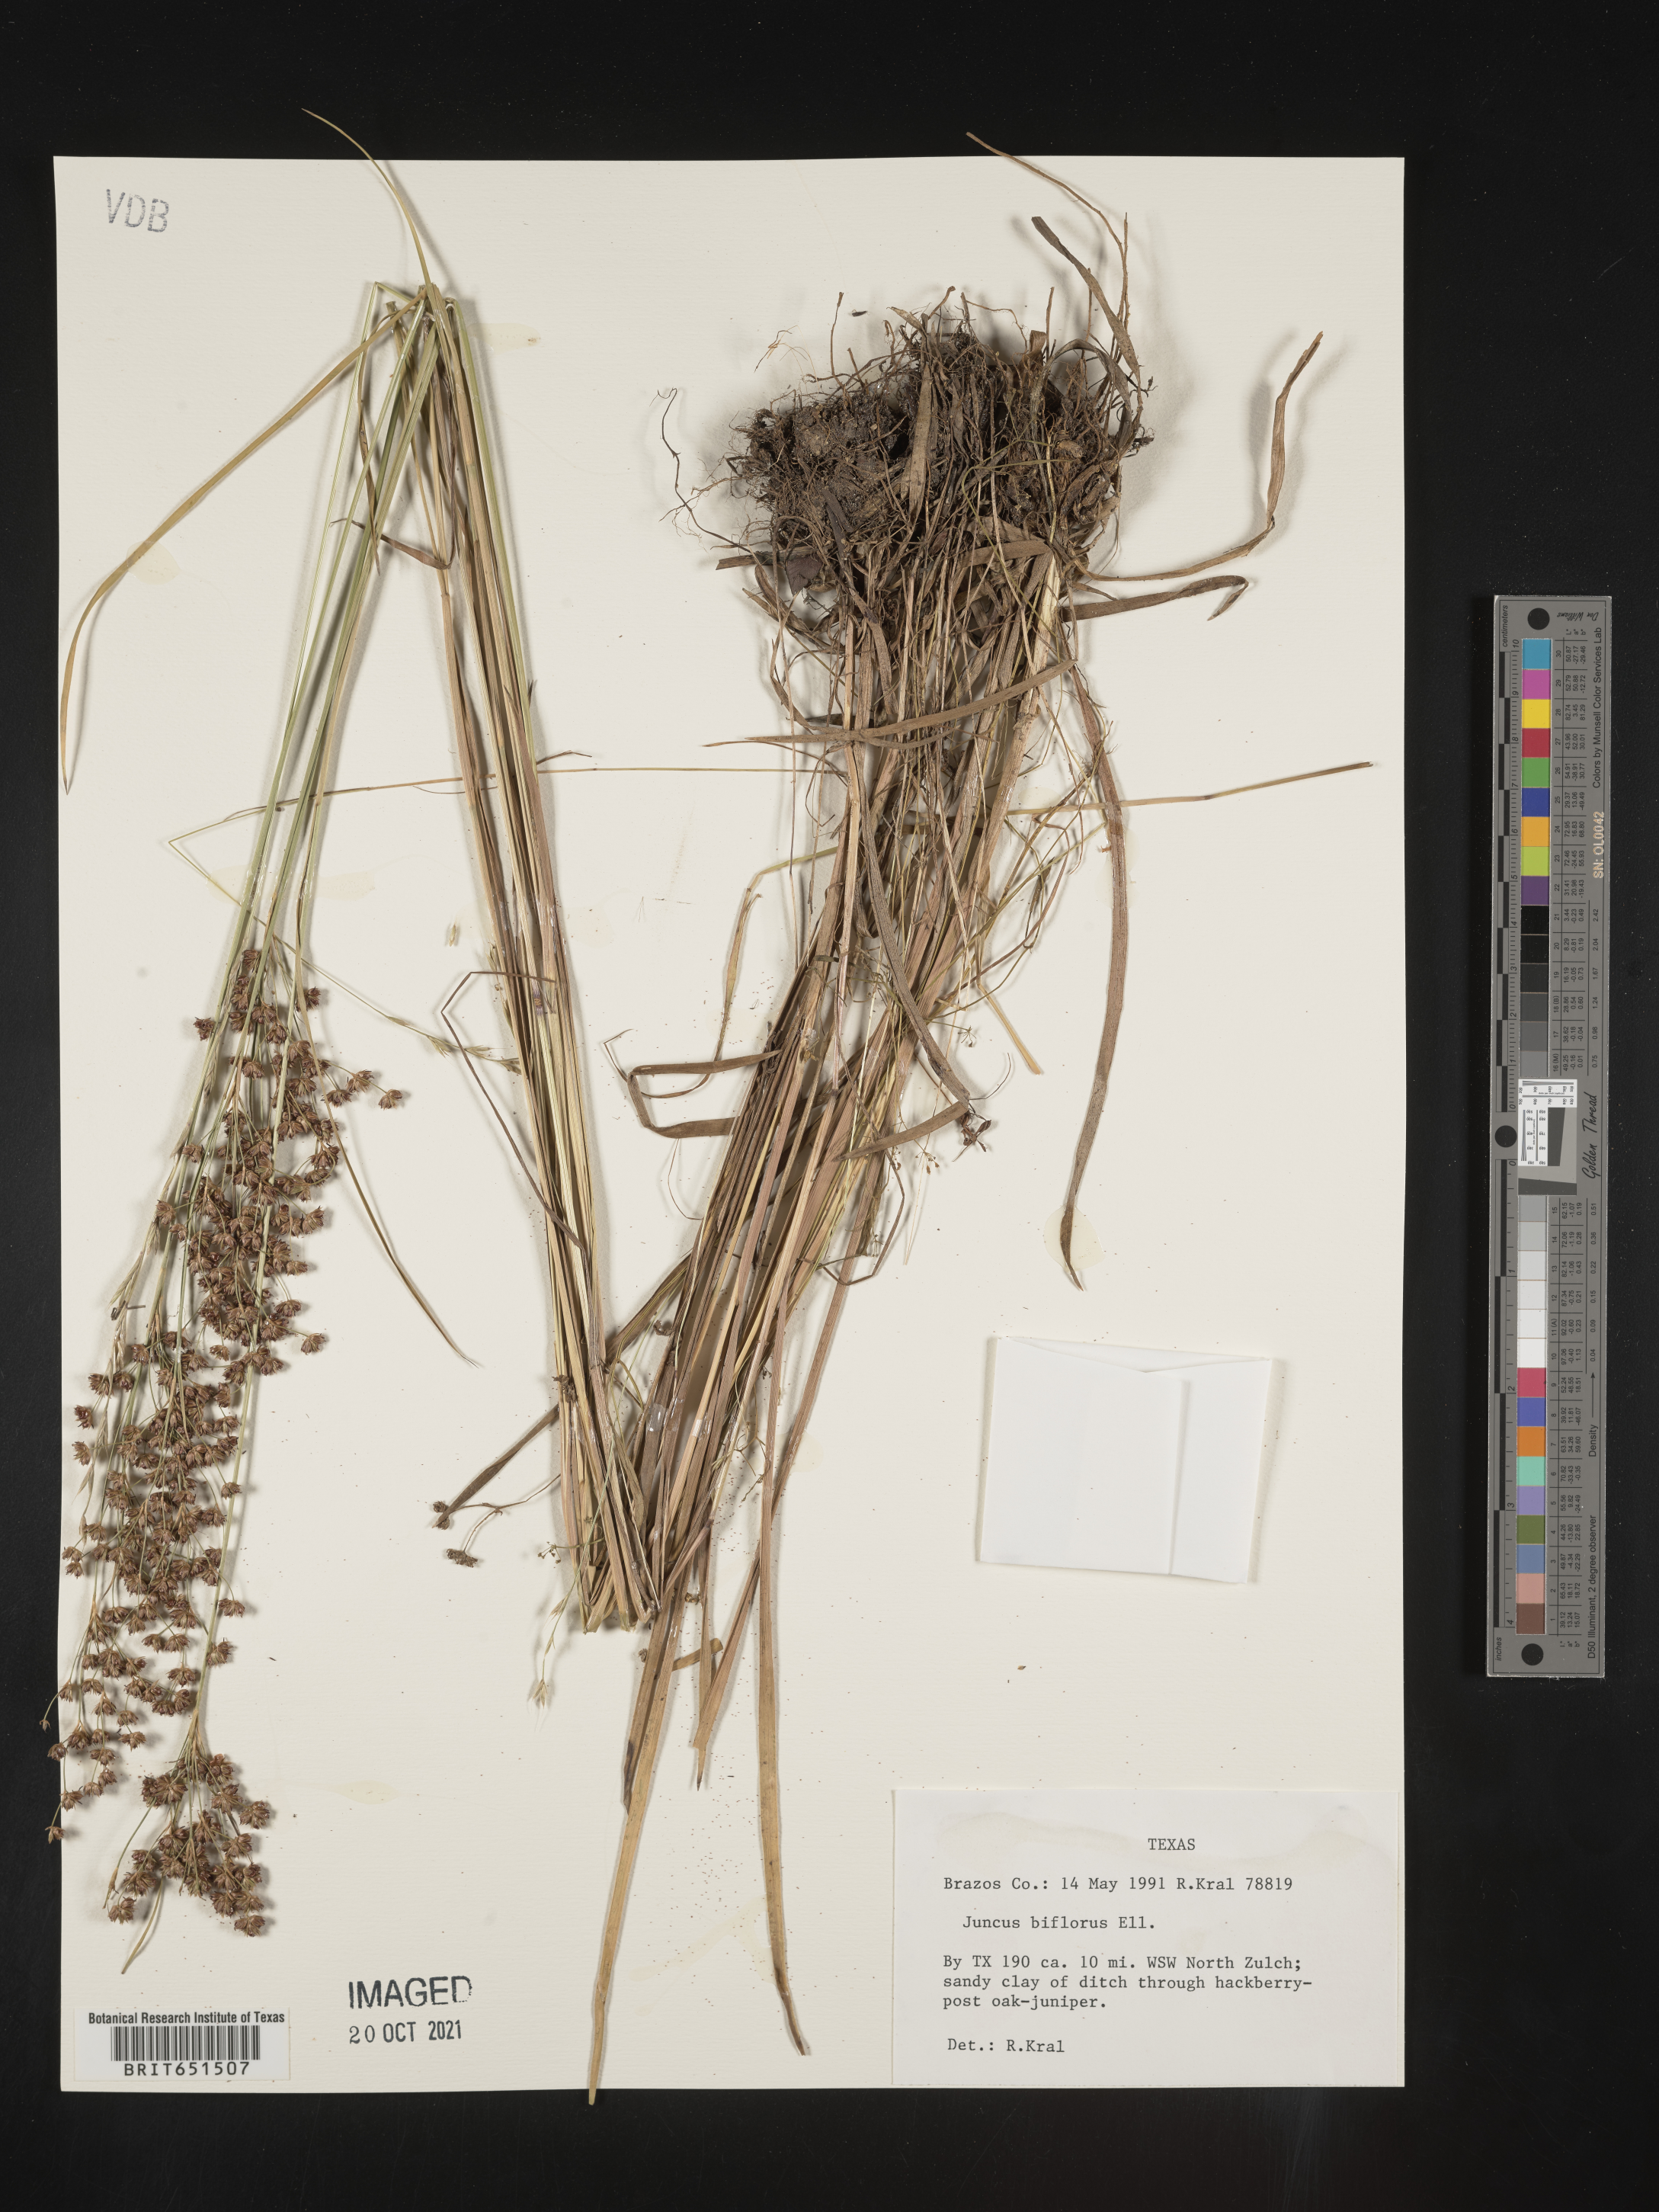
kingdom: Plantae
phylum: Tracheophyta
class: Liliopsida
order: Poales
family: Juncaceae
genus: Juncus
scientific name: Juncus biflorus
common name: Two-flowered rush
